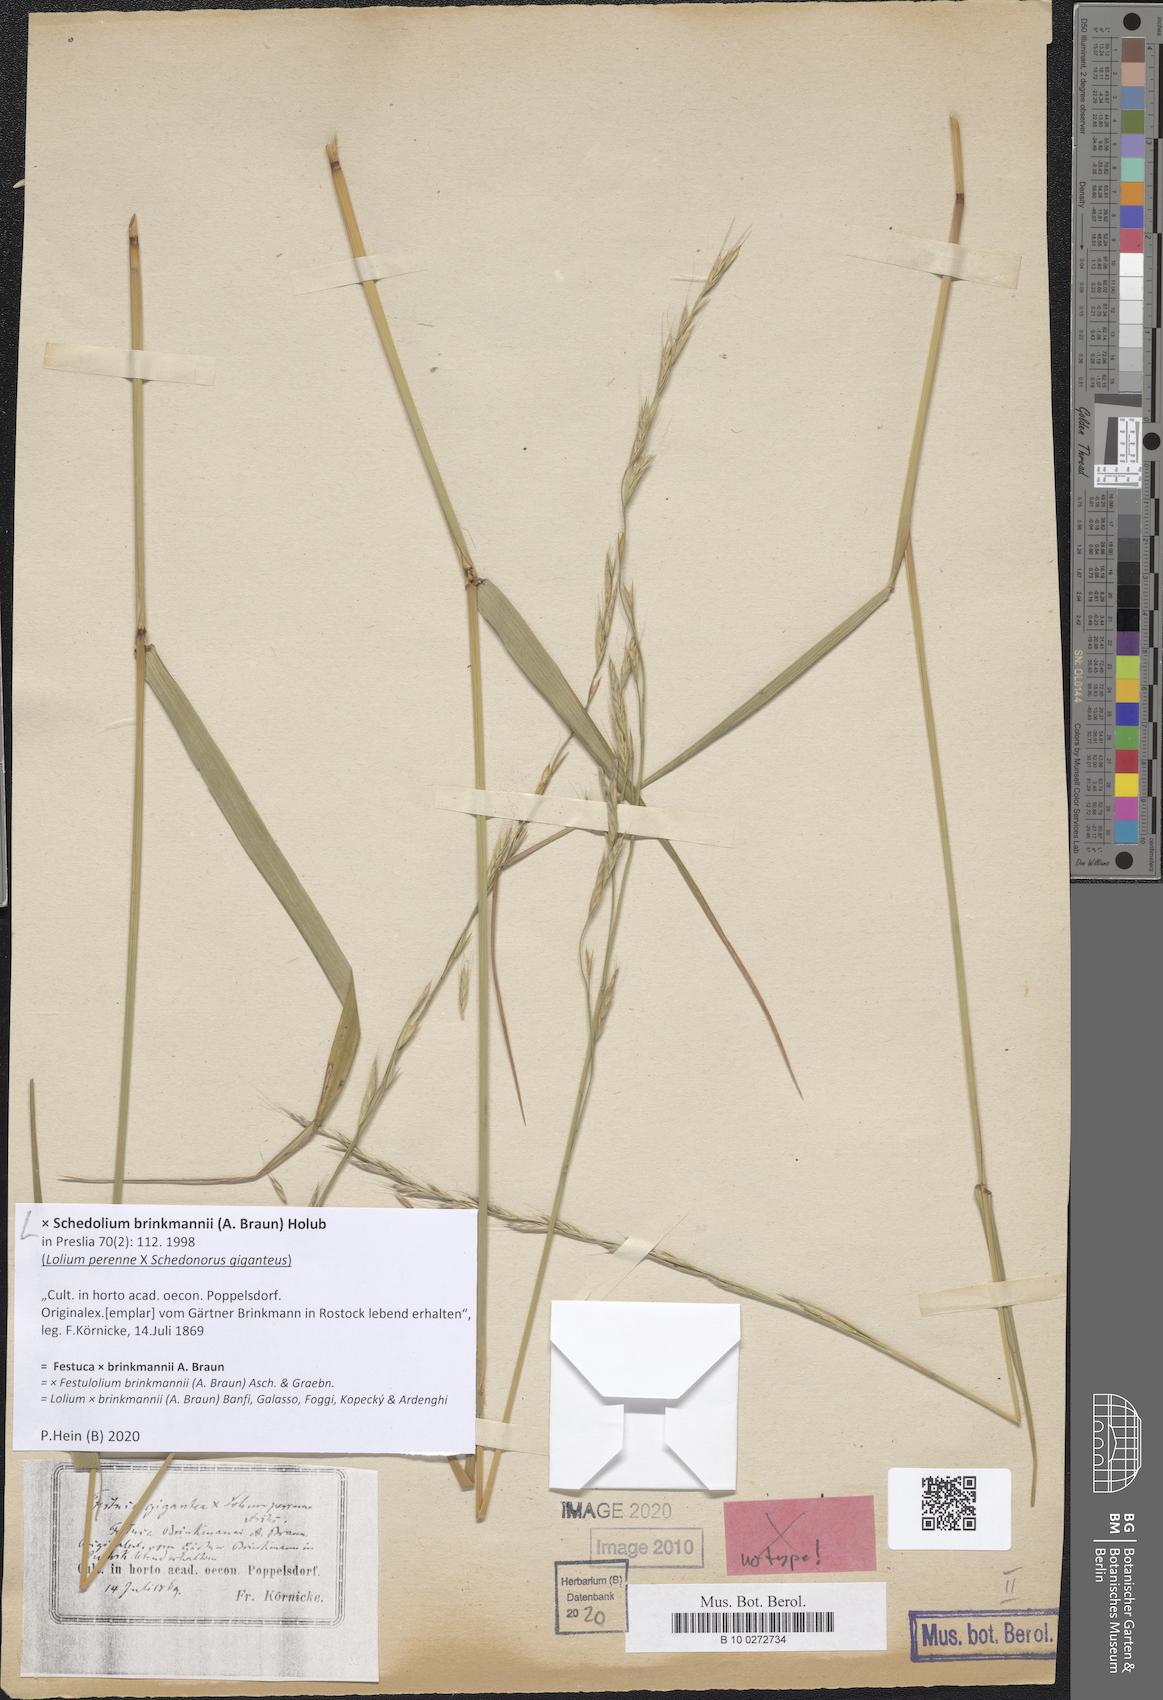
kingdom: Plantae
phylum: Tracheophyta
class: Liliopsida
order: Poales
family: Poaceae
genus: Lolium
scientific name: Lolium brinkmannii
